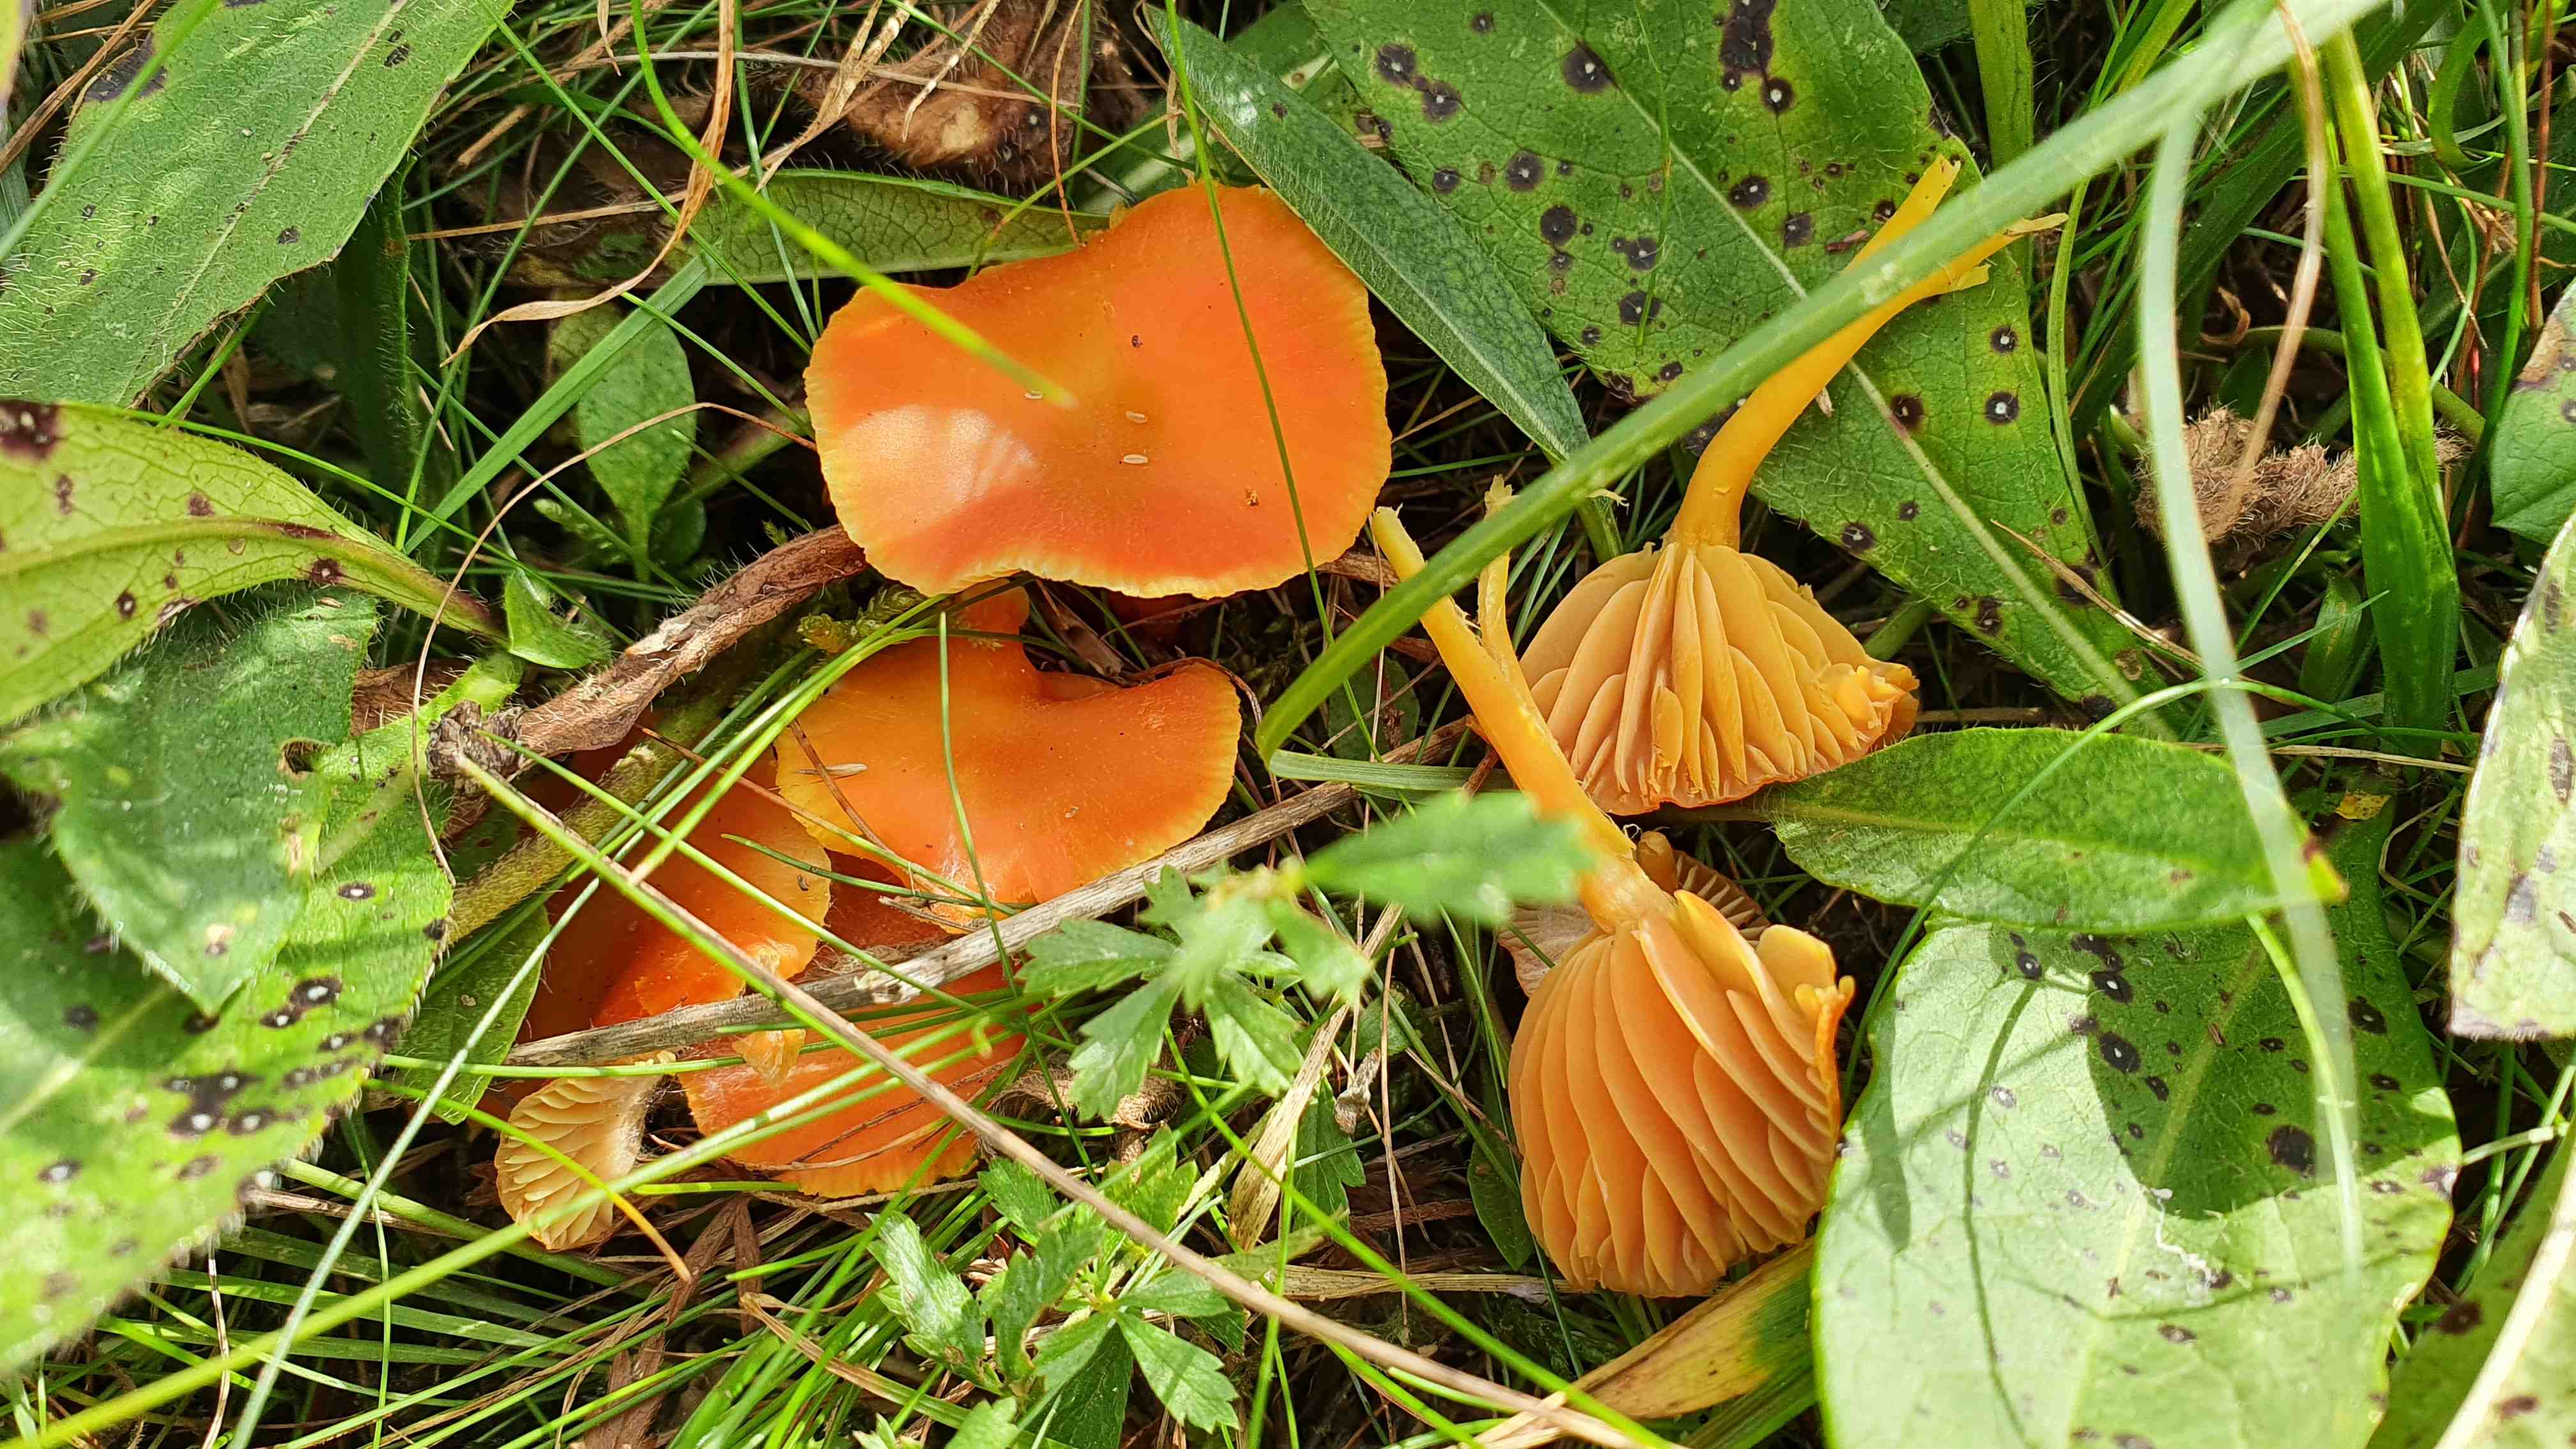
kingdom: Fungi
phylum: Basidiomycota
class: Agaricomycetes
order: Agaricales
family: Hygrophoraceae
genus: Hygrocybe
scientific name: Hygrocybe reidii
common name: honning-vokshat
